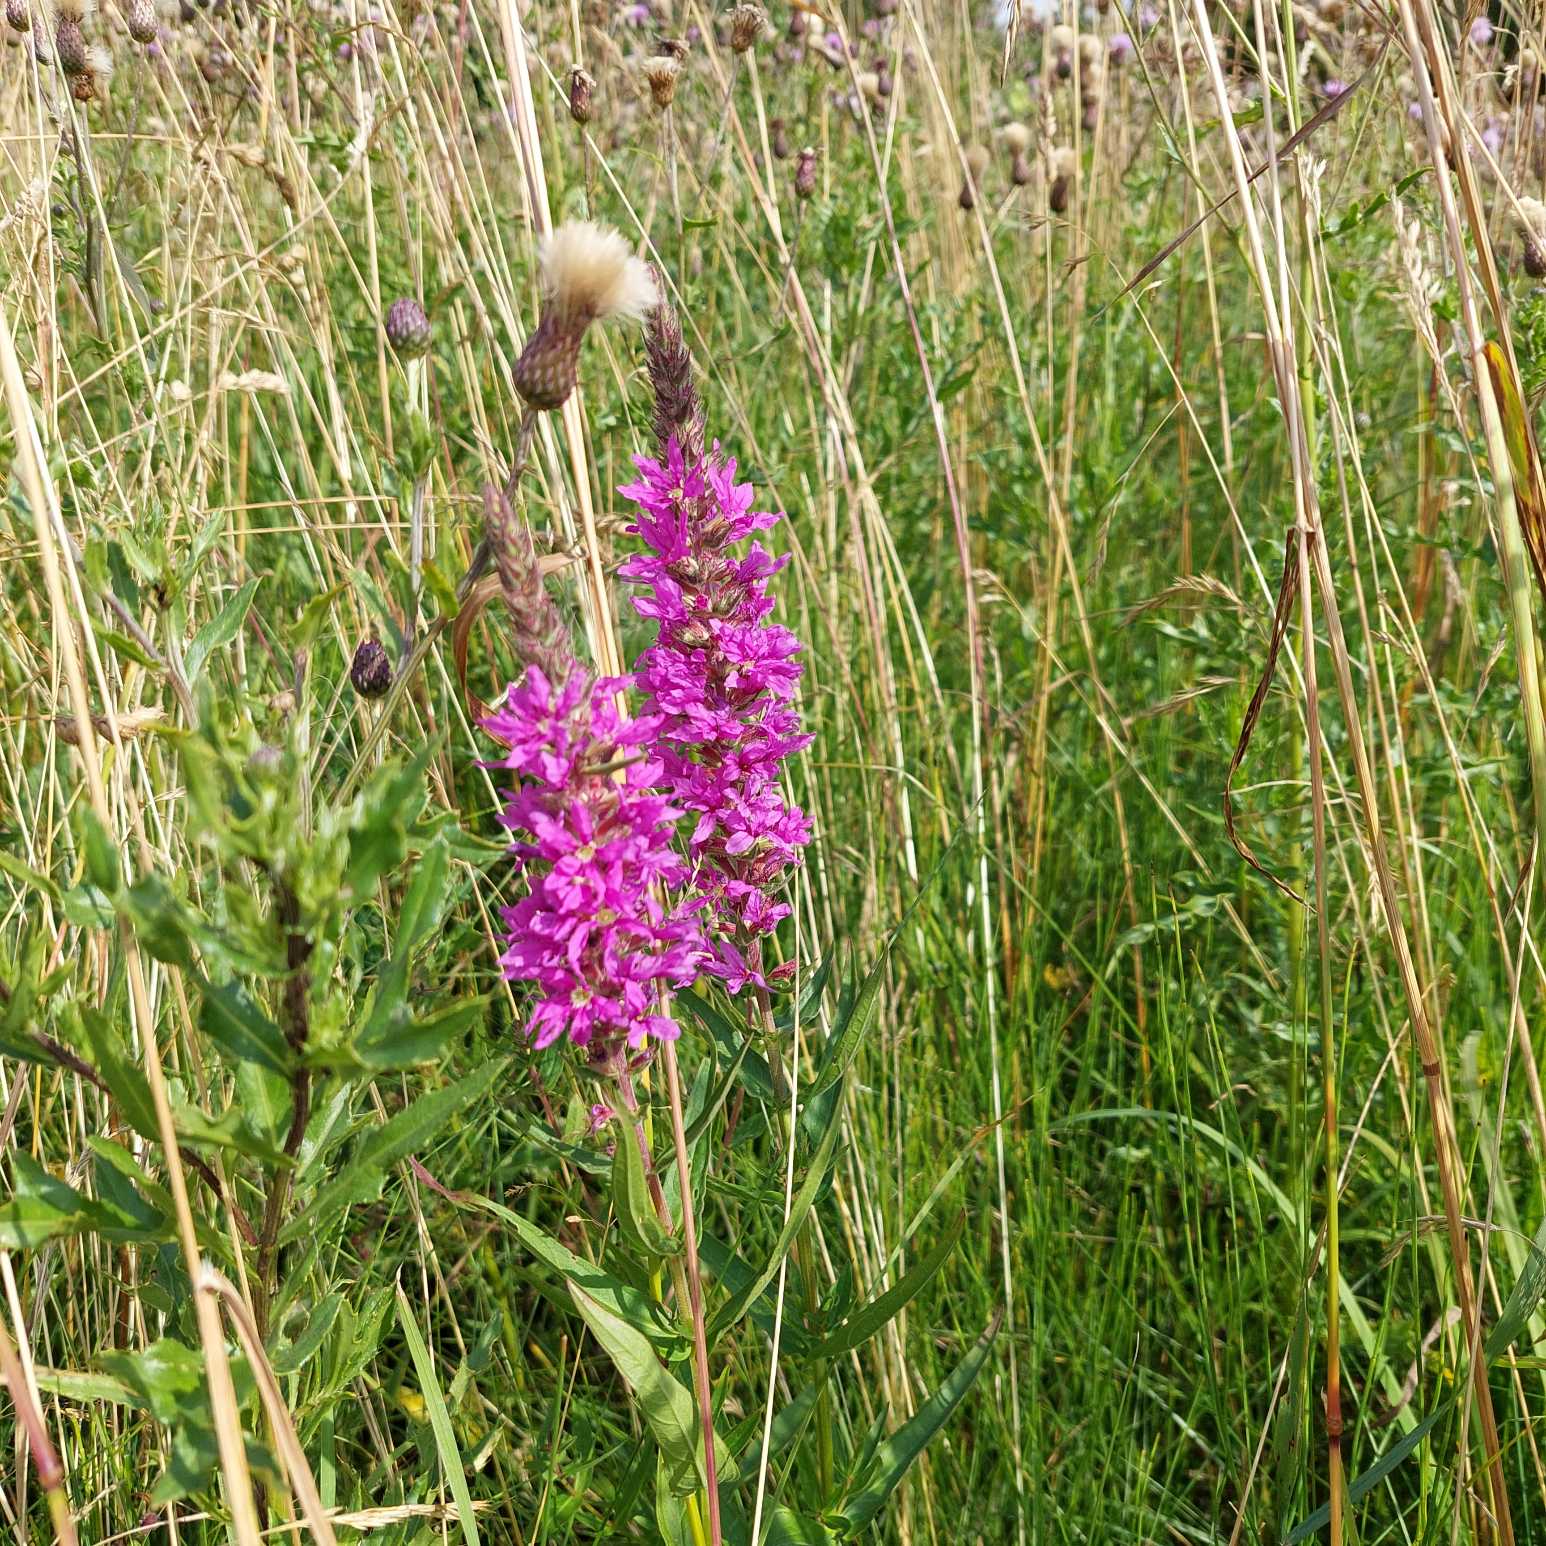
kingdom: Plantae
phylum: Tracheophyta
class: Magnoliopsida
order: Myrtales
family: Lythraceae
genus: Lythrum
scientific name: Lythrum salicaria
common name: Kattehale
